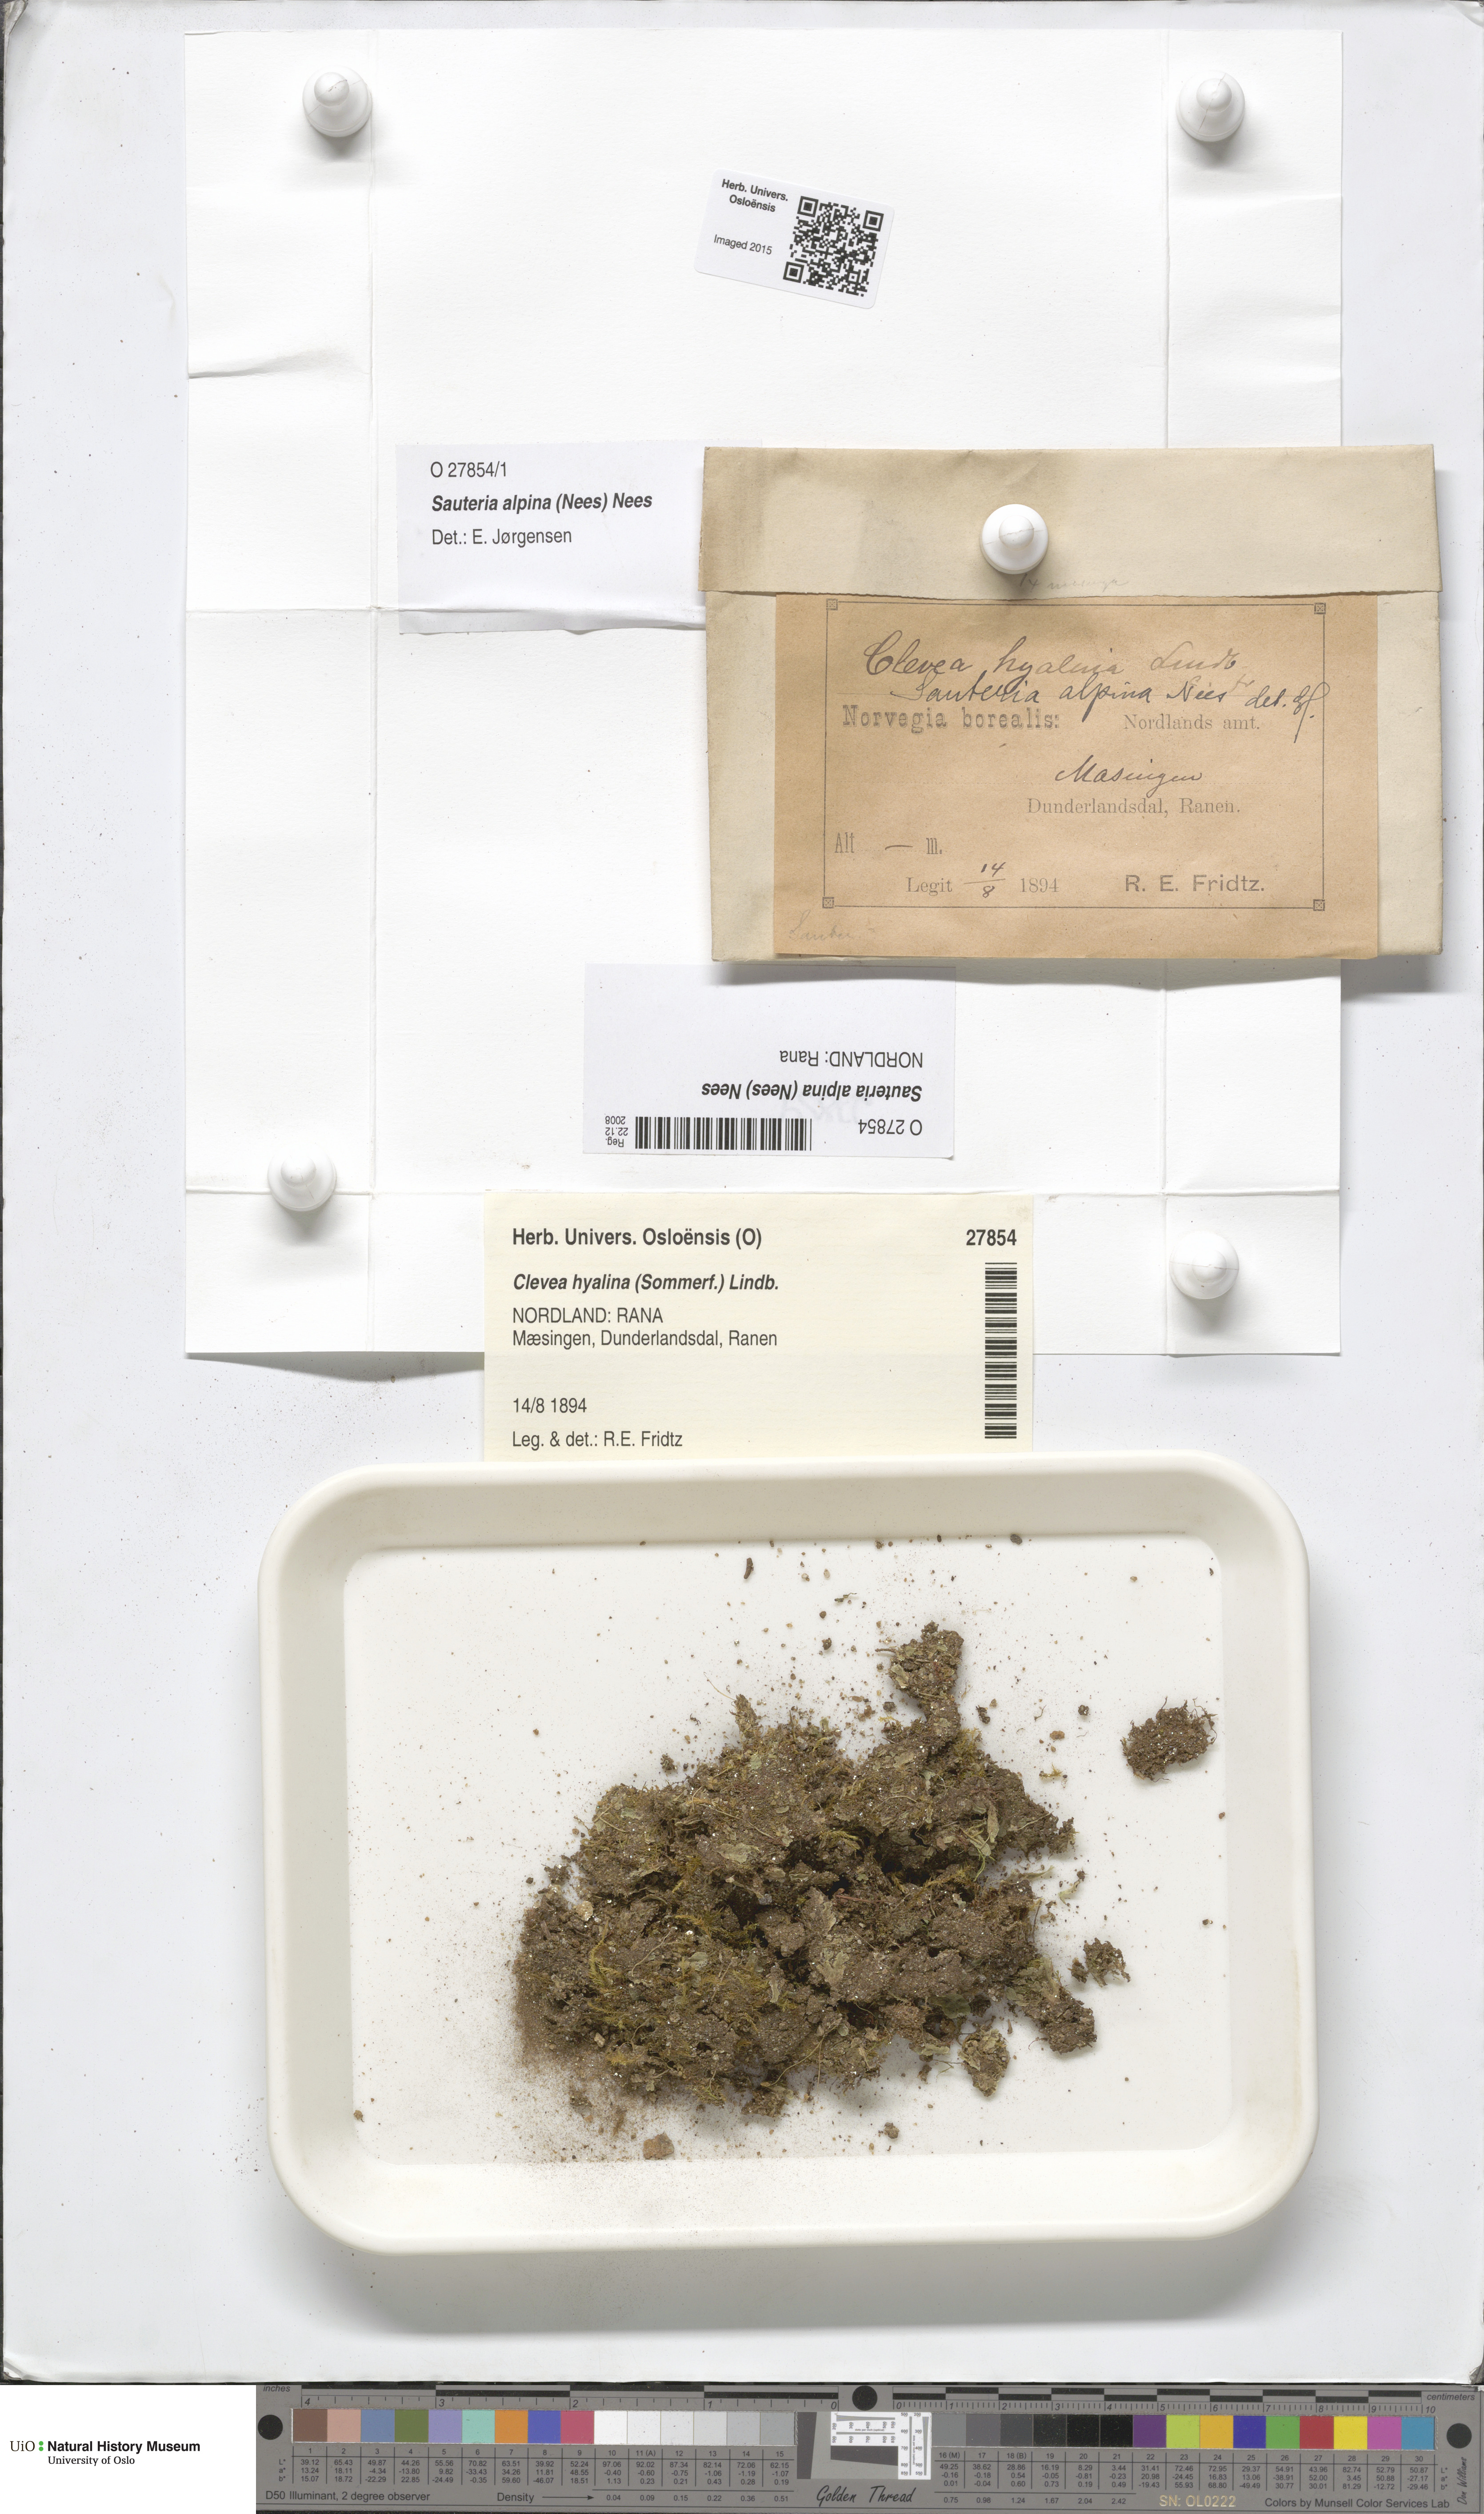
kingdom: Plantae
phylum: Marchantiophyta
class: Marchantiopsida
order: Marchantiales
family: Cleveaceae
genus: Sauteria
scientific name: Sauteria alpina
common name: Snow lungwort
